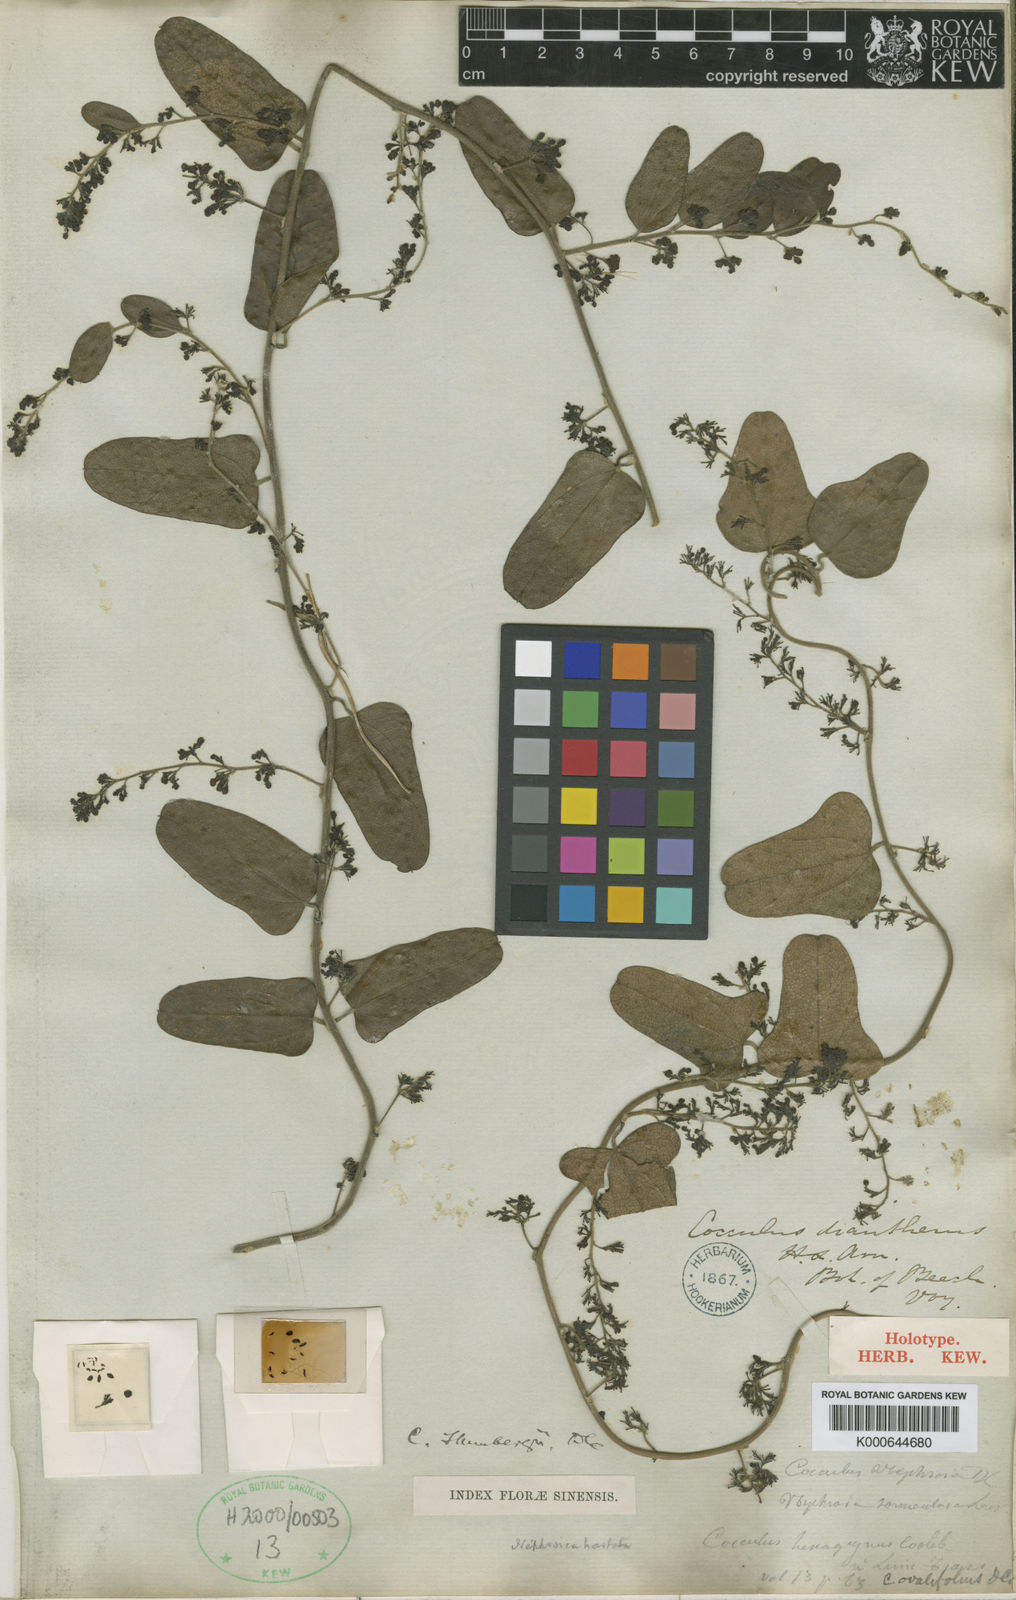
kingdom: Plantae
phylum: Tracheophyta
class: Magnoliopsida
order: Ranunculales
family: Menispermaceae
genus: Cocculus
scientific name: Cocculus orbiculatus
